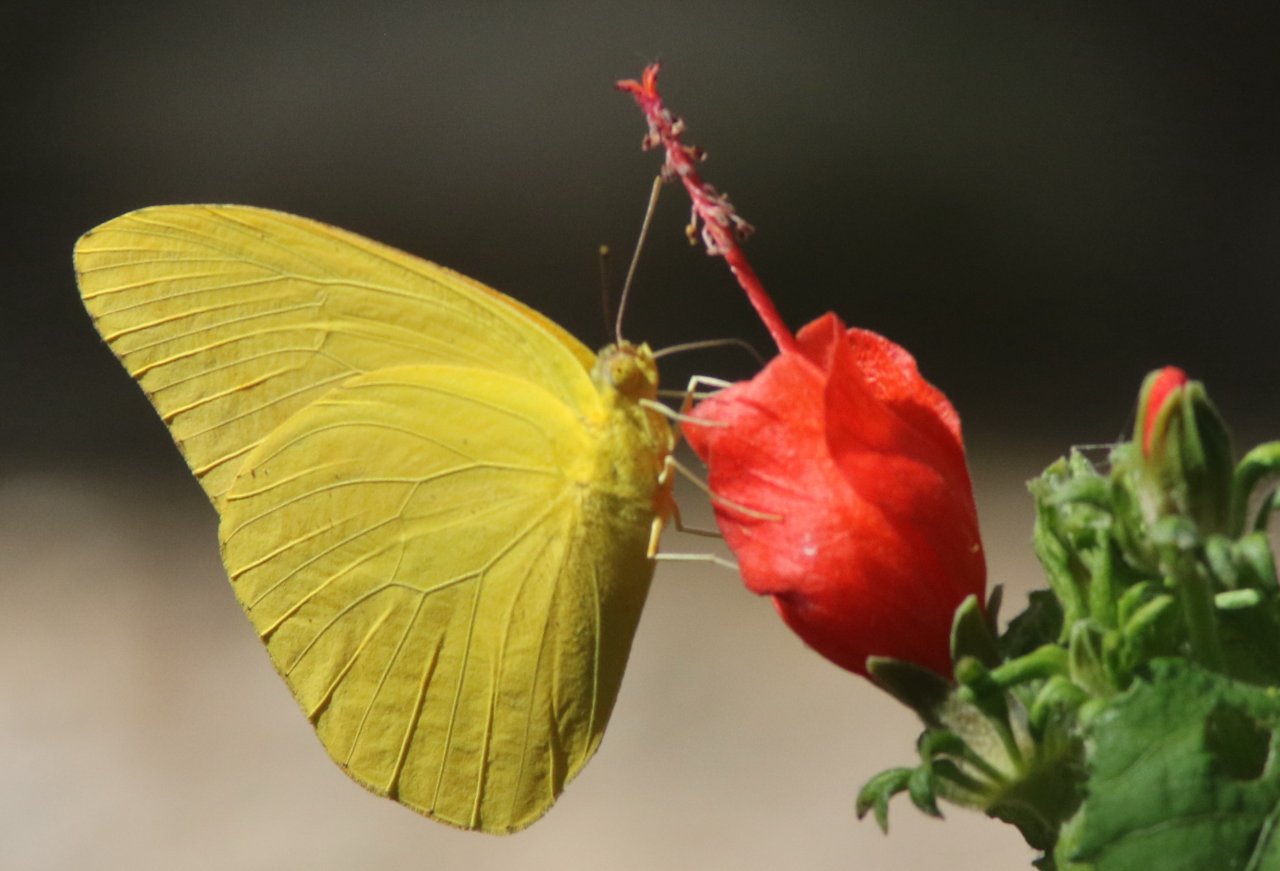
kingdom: Animalia
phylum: Arthropoda
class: Insecta
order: Lepidoptera
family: Pieridae
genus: Aphrissa
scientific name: Aphrissa statira
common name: Statira Sulphur
